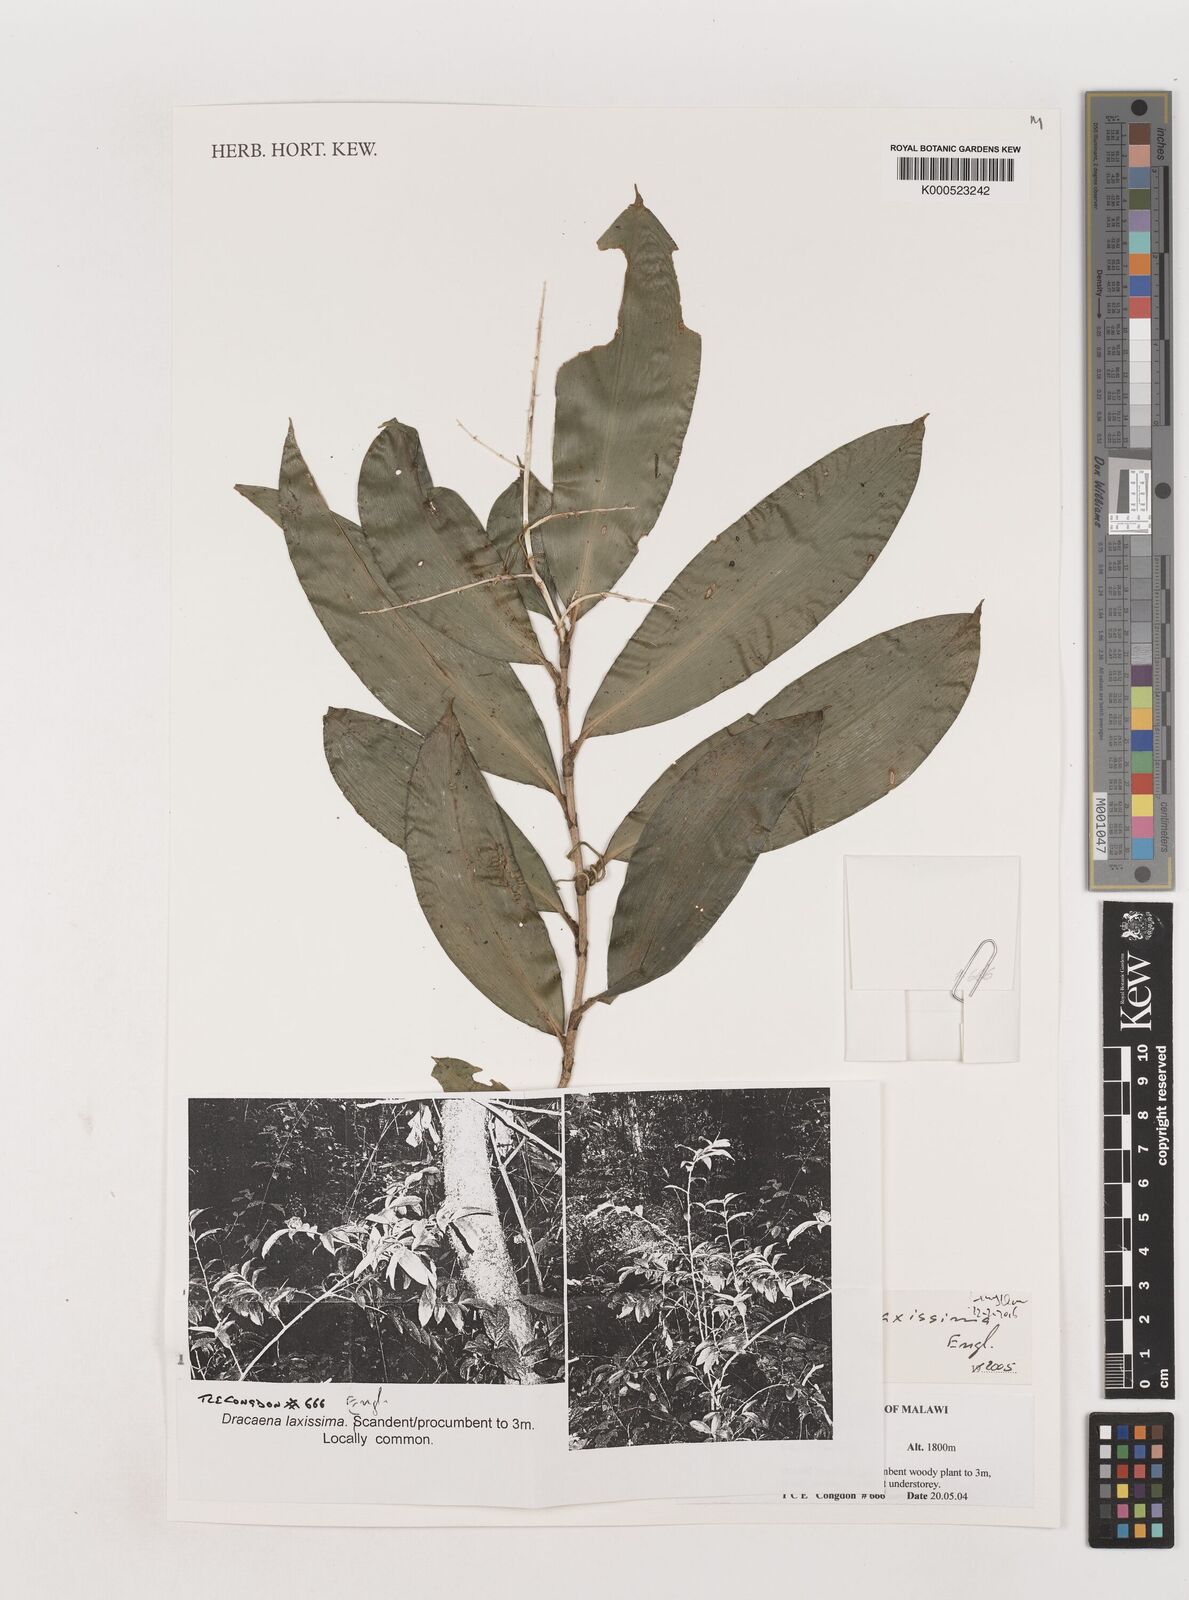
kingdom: Plantae
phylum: Tracheophyta
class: Liliopsida
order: Asparagales
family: Asparagaceae
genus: Dracaena
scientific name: Dracaena laxissima
